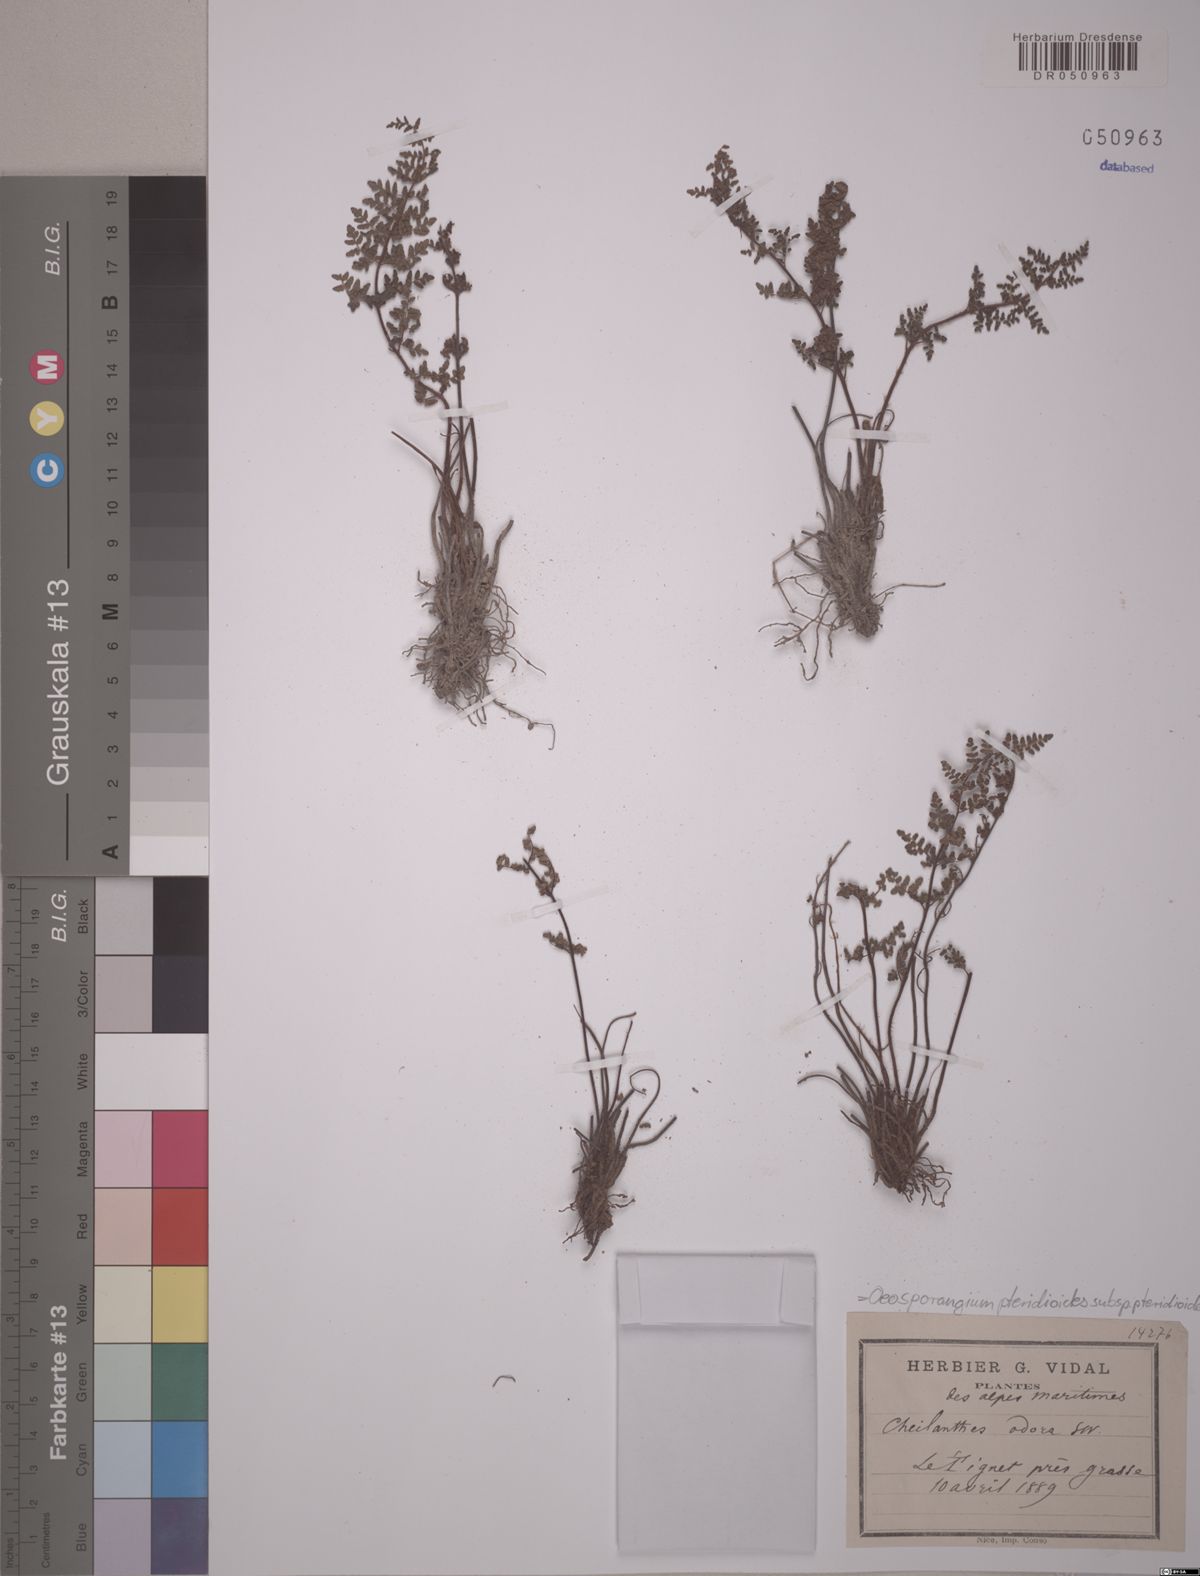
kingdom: Plantae
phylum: Tracheophyta
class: Polypodiopsida
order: Polypodiales
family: Pteridaceae
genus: Oeosporangium
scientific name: Oeosporangium pteridioides
